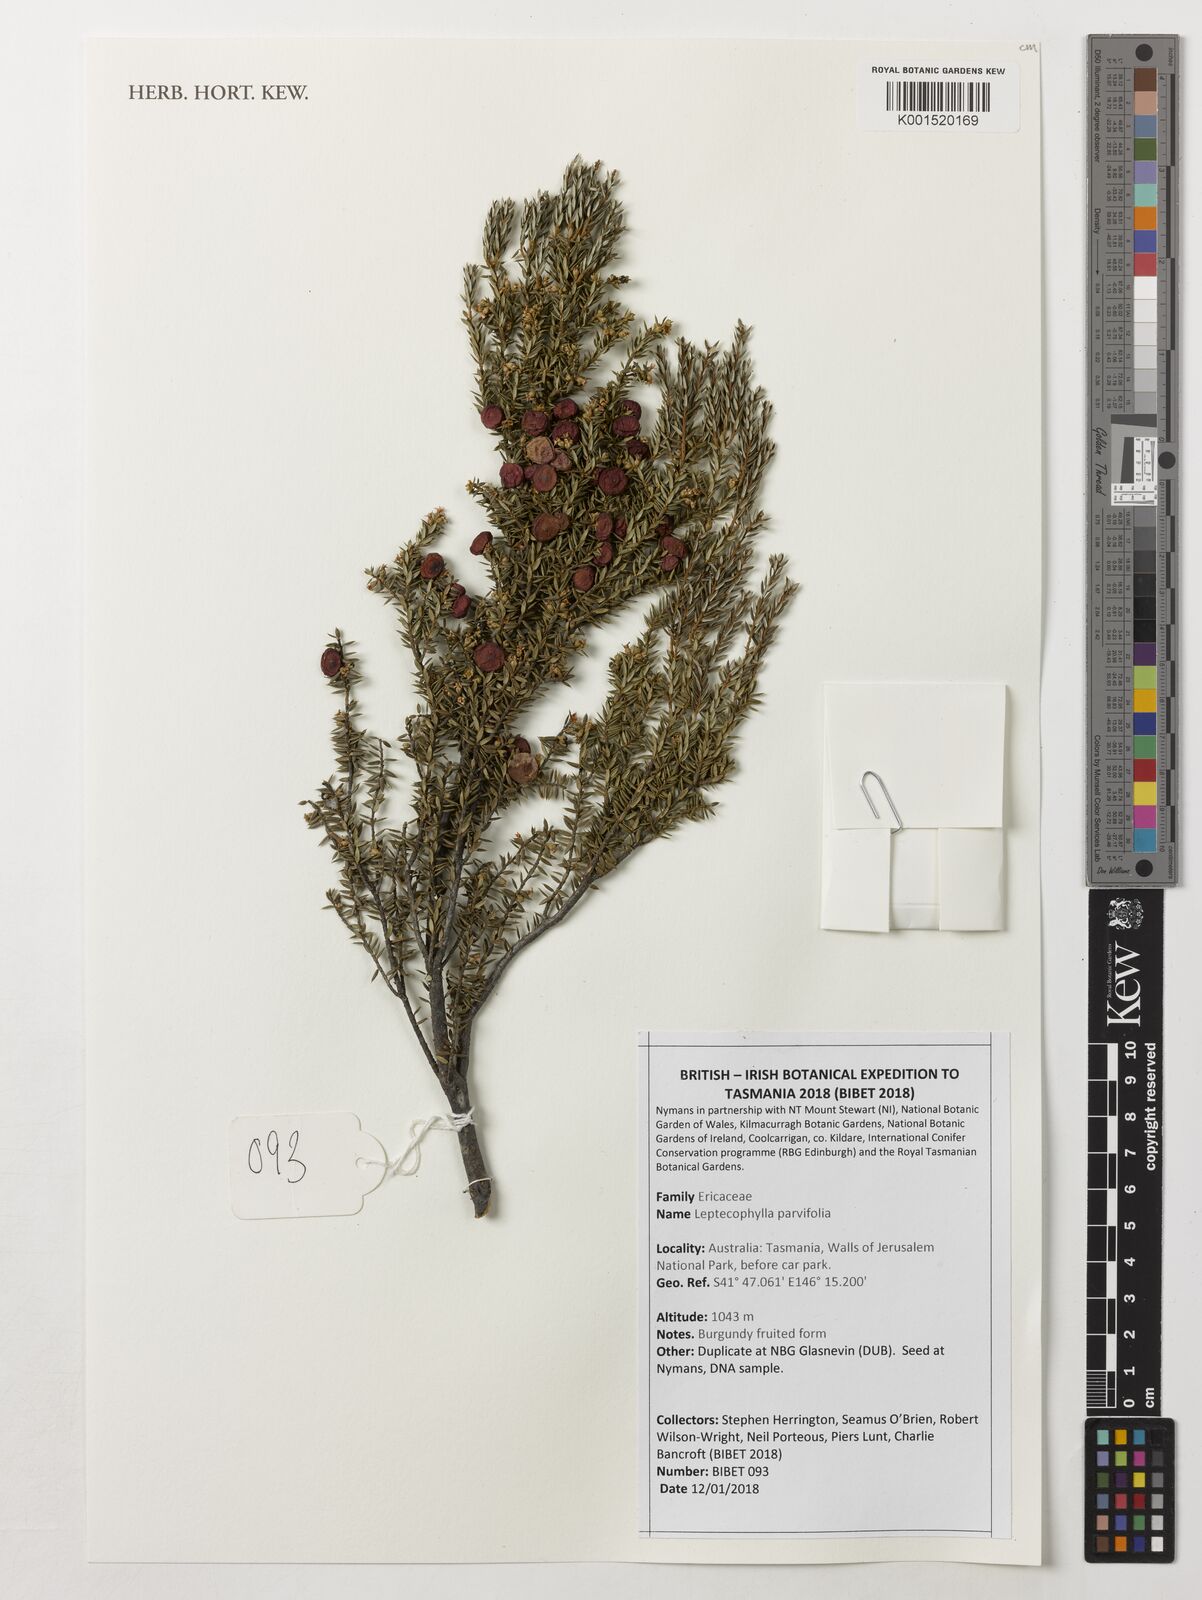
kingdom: Plantae
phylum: Tracheophyta
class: Magnoliopsida
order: Ericales
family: Ericaceae
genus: Leptecophylla
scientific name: Leptecophylla
